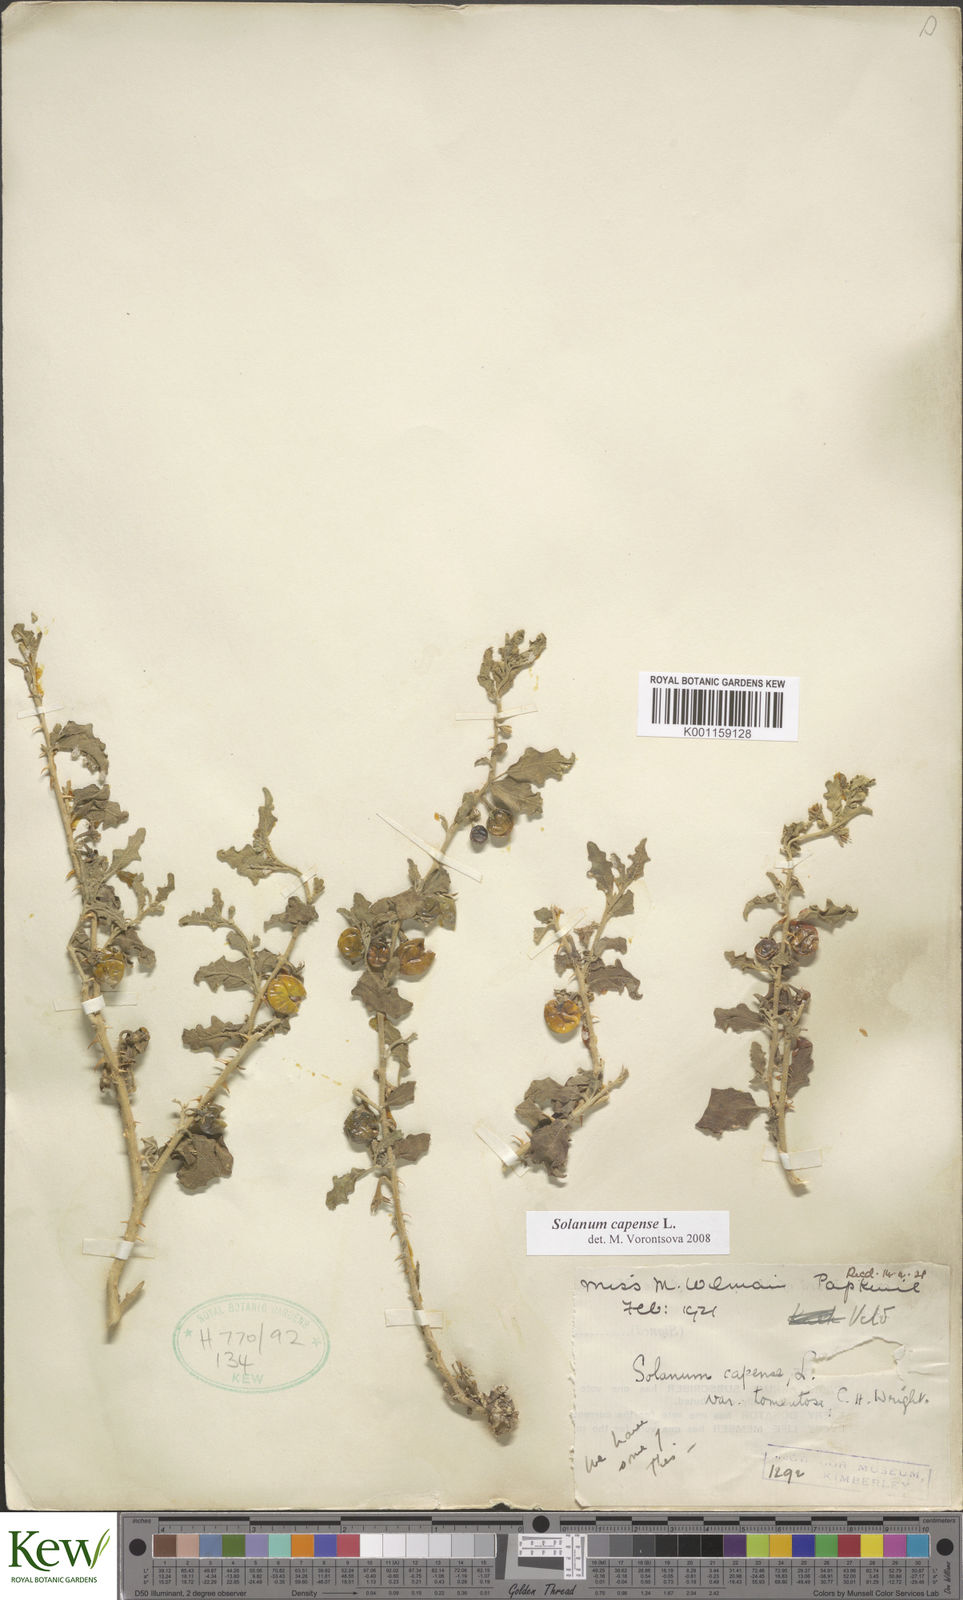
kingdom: Plantae
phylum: Tracheophyta
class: Magnoliopsida
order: Solanales
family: Solanaceae
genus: Solanum
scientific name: Solanum capense
